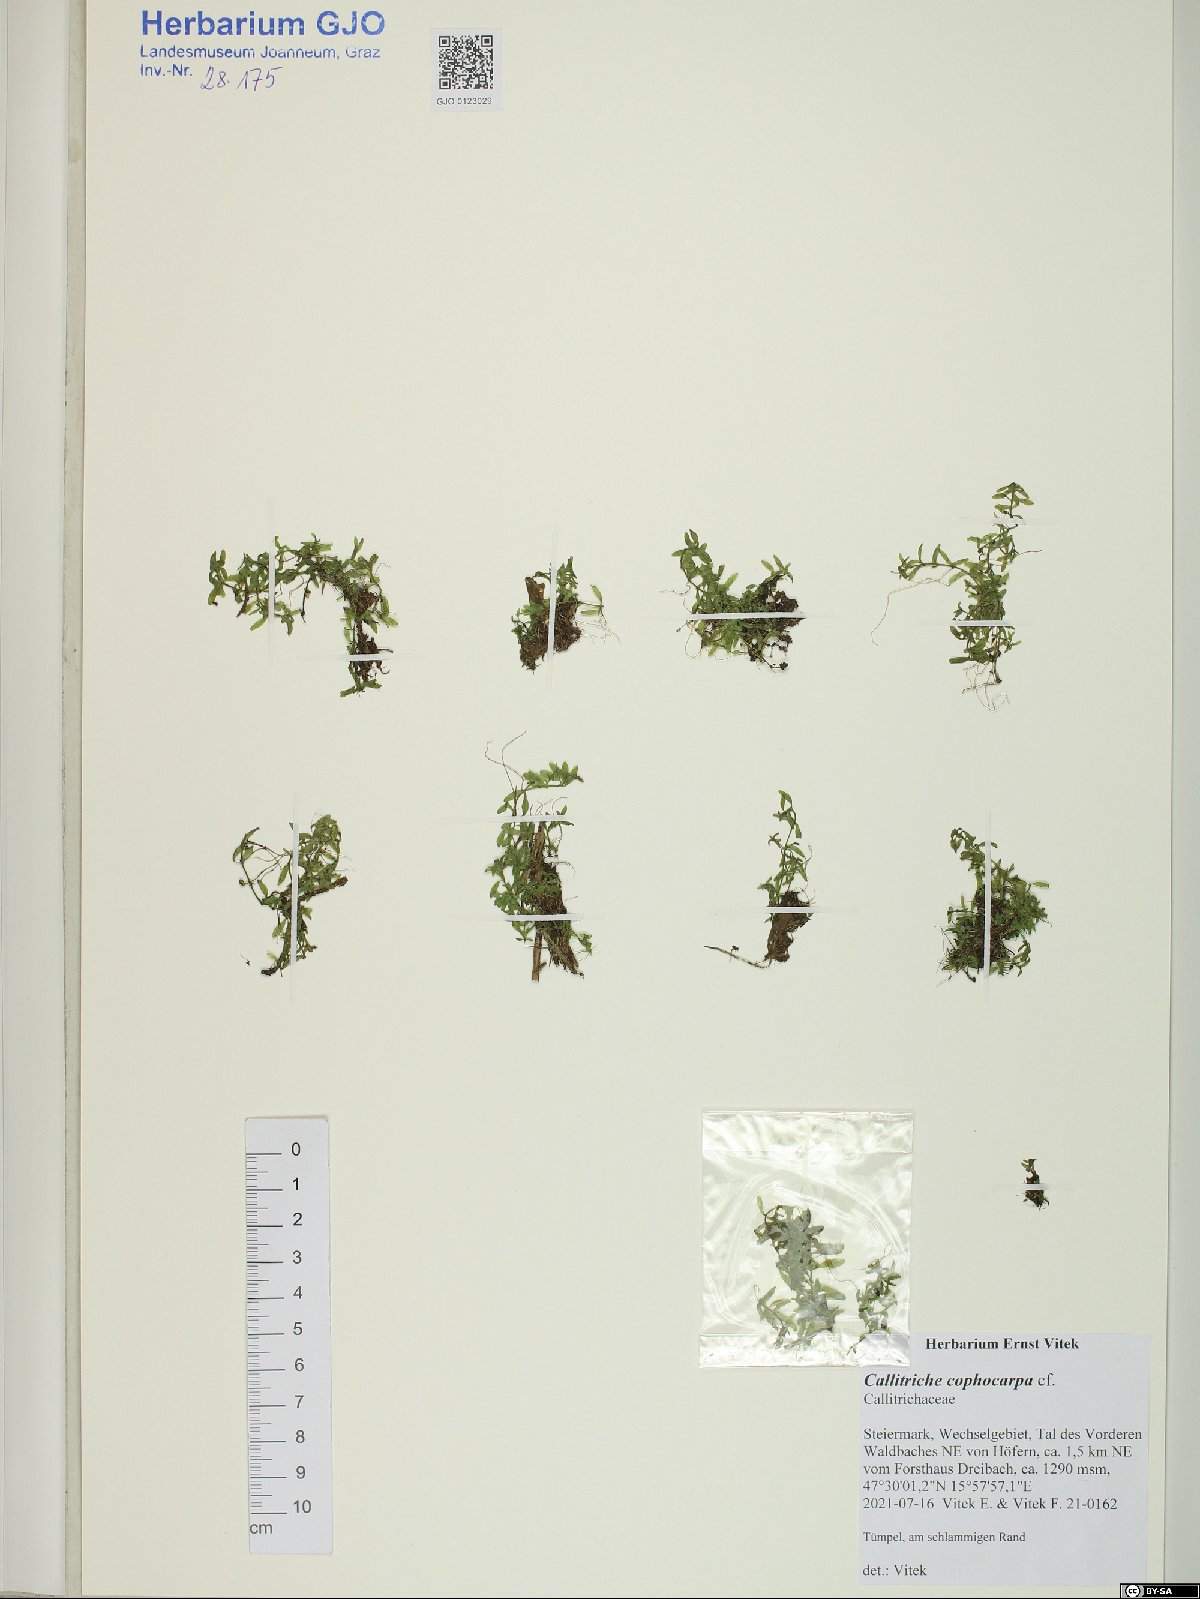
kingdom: Plantae
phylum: Tracheophyta
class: Magnoliopsida
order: Lamiales
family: Plantaginaceae
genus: Callitriche
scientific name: Callitriche cophocarpa
